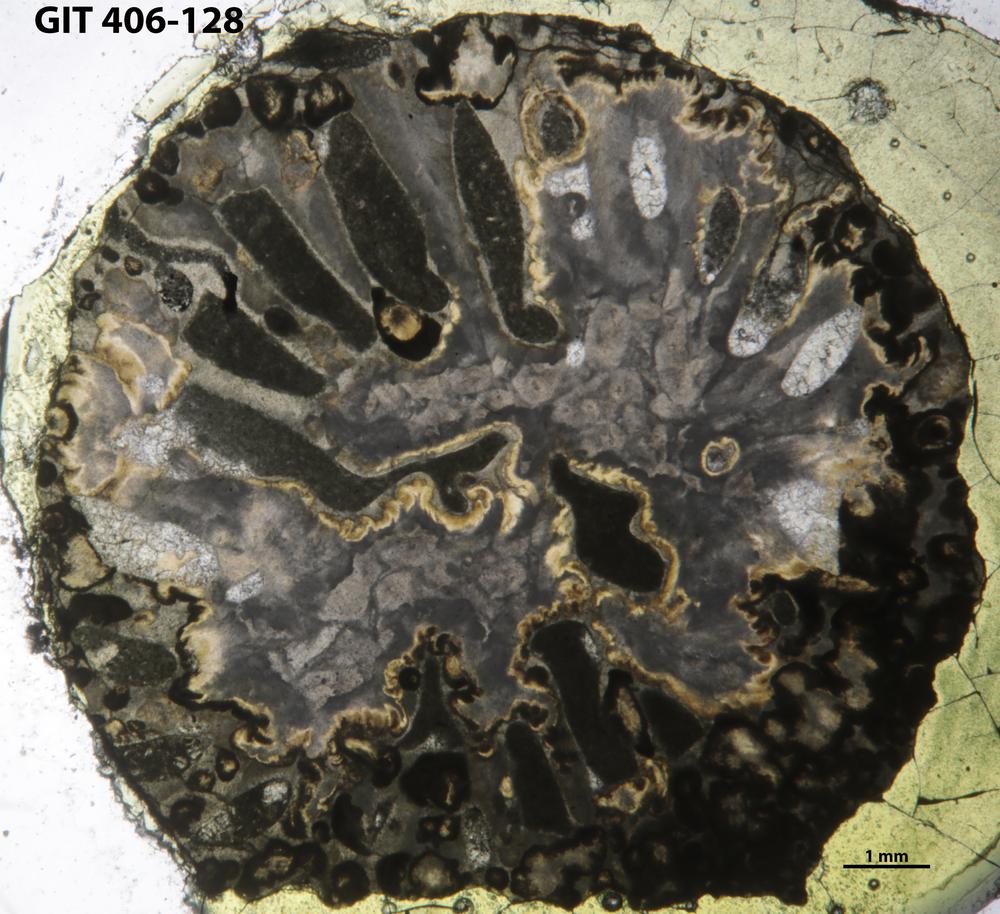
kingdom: Animalia
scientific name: Animalia
